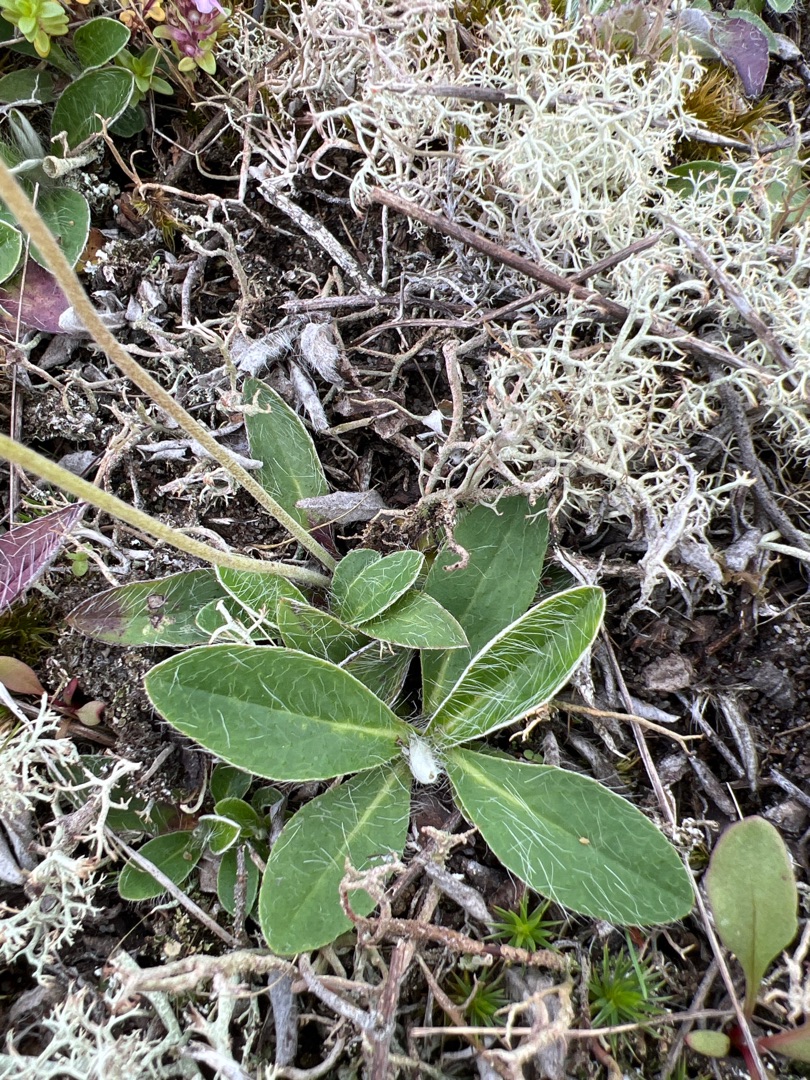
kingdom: Plantae
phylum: Tracheophyta
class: Magnoliopsida
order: Asterales
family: Asteraceae
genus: Pilosella
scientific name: Pilosella officinarum
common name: Håret høgeurt
